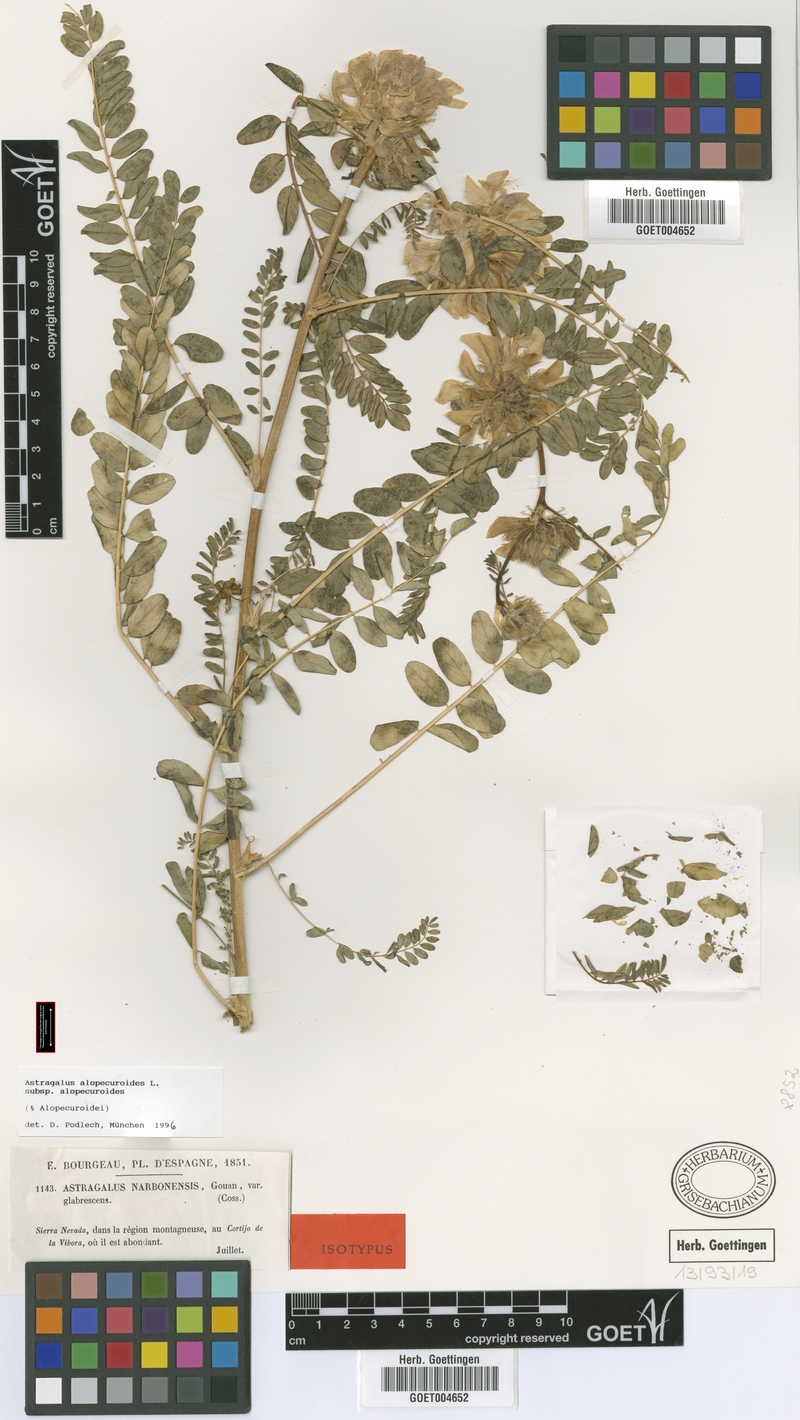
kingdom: Plantae
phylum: Tracheophyta
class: Magnoliopsida
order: Fabales
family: Fabaceae
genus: Astragalus
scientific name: Astragalus alopecuroides
